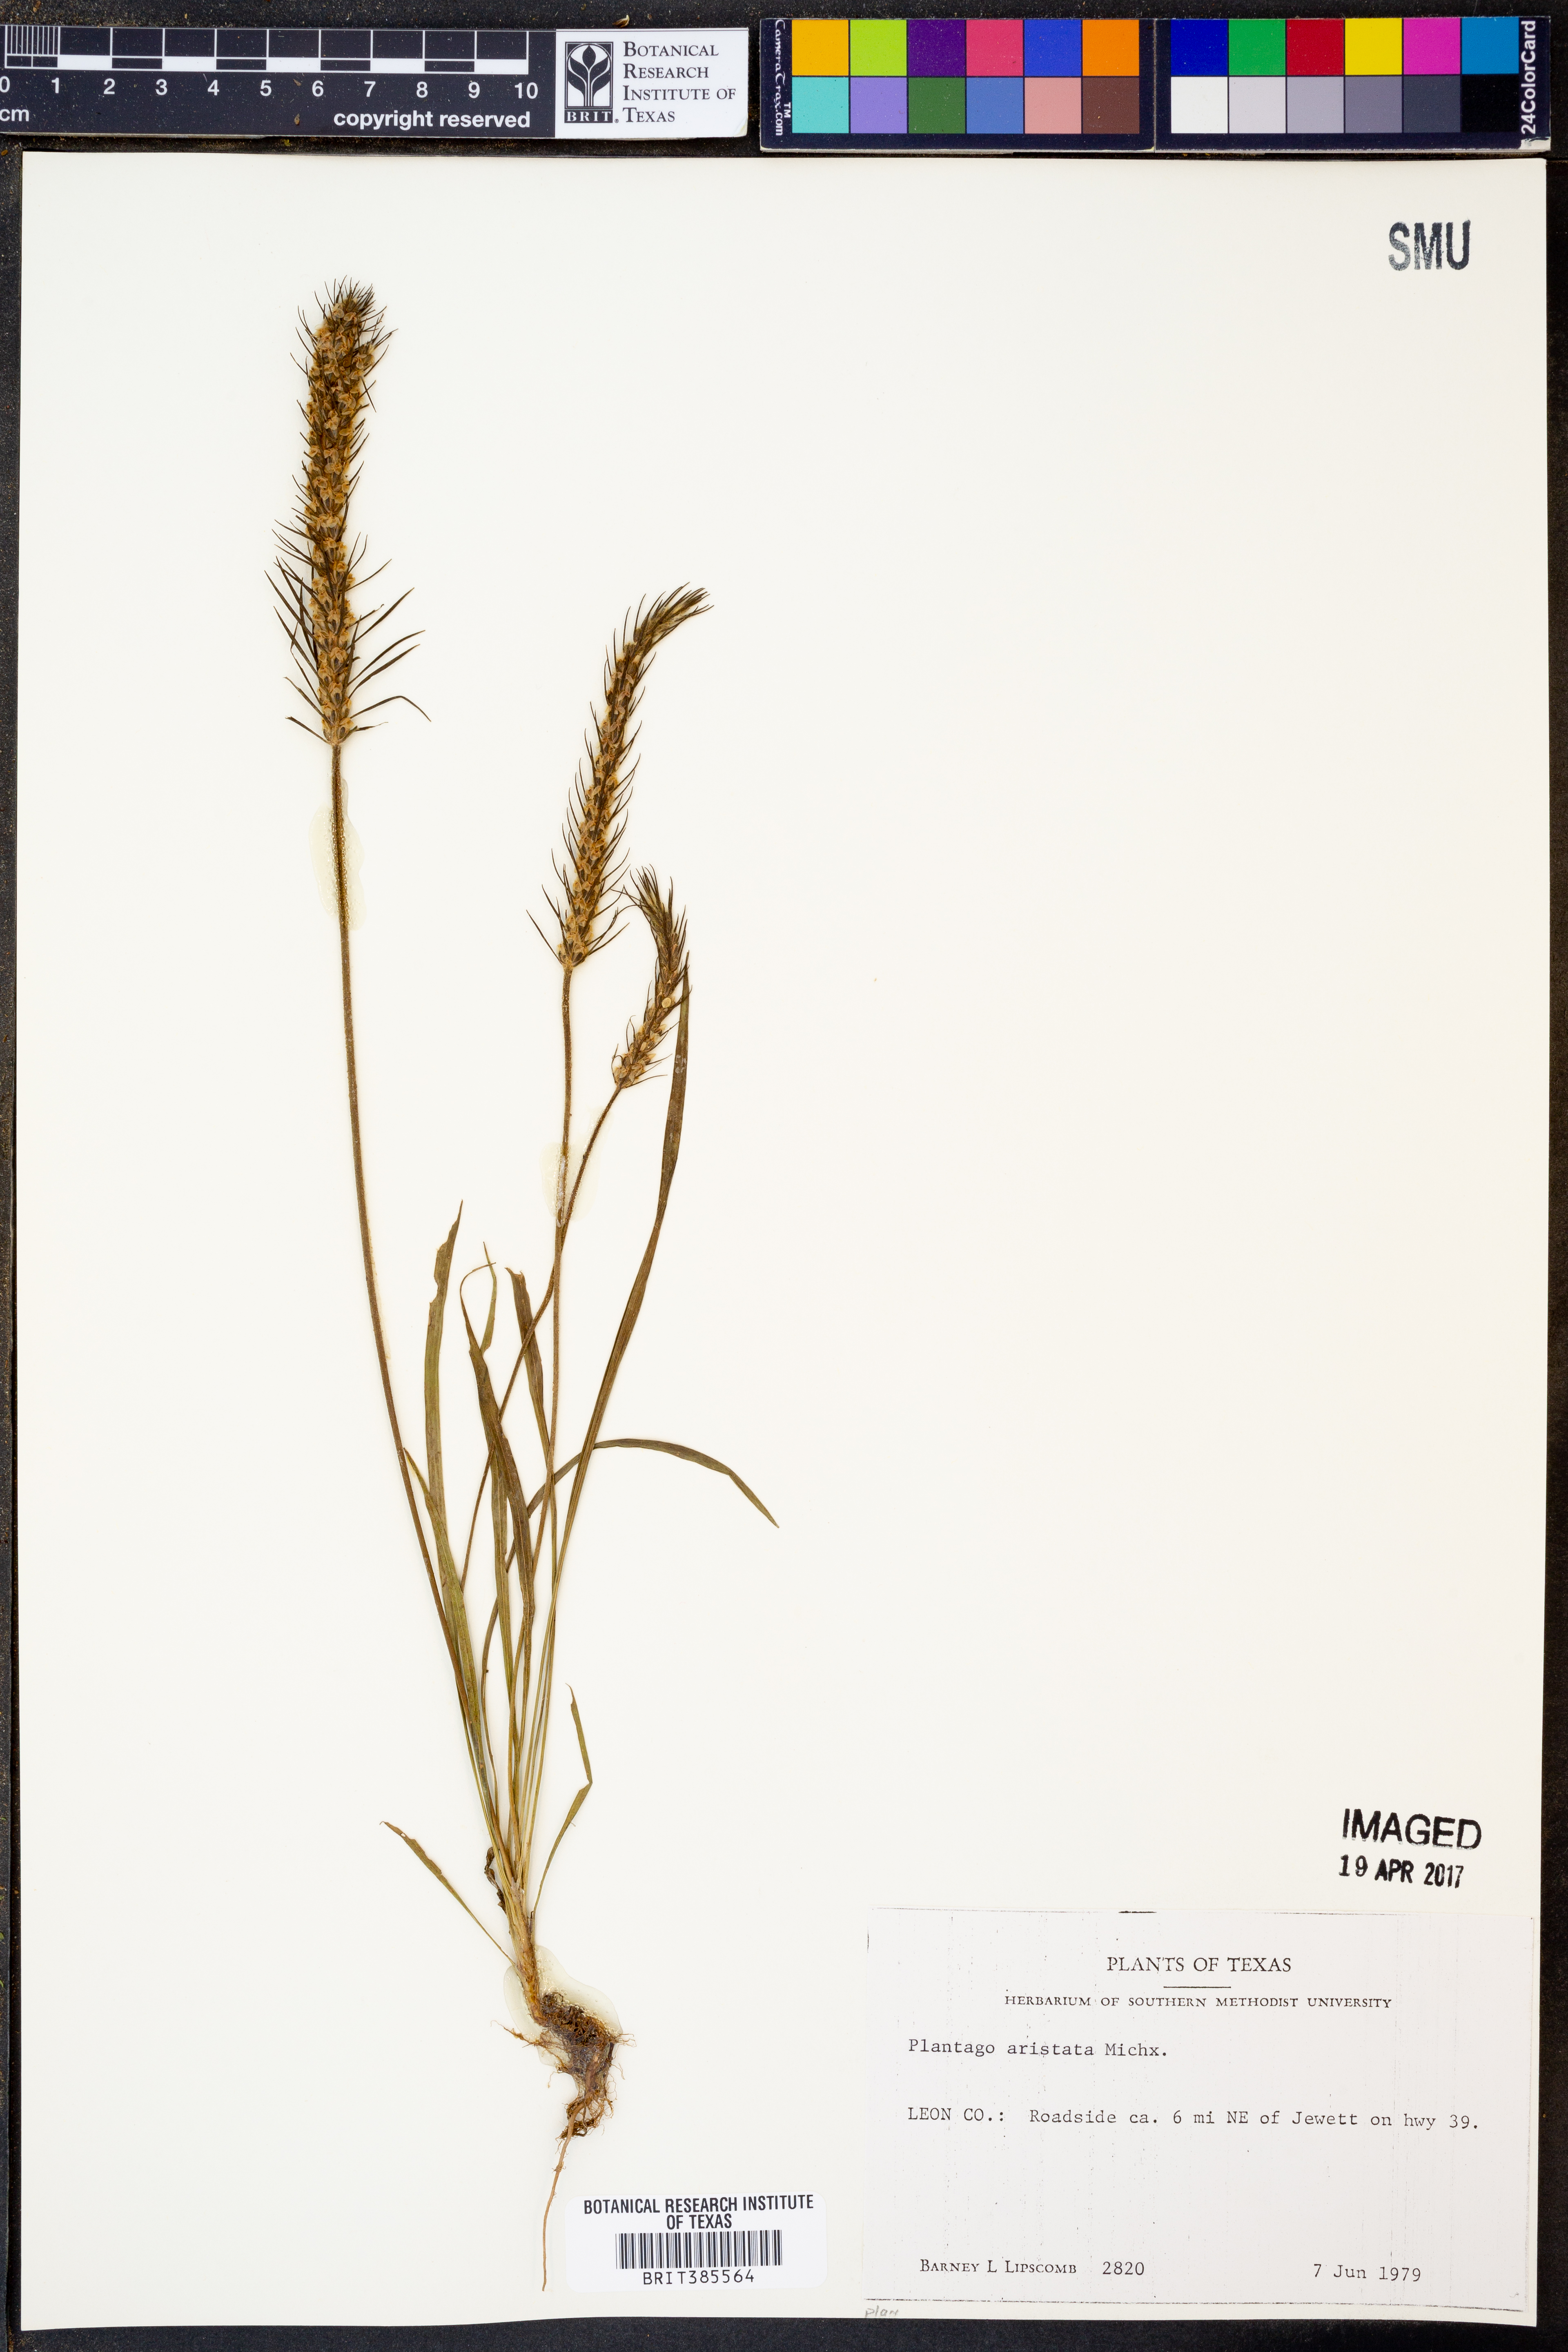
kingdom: Plantae
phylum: Tracheophyta
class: Magnoliopsida
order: Lamiales
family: Plantaginaceae
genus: Plantago
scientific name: Plantago aristata
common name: Bracted plantain
